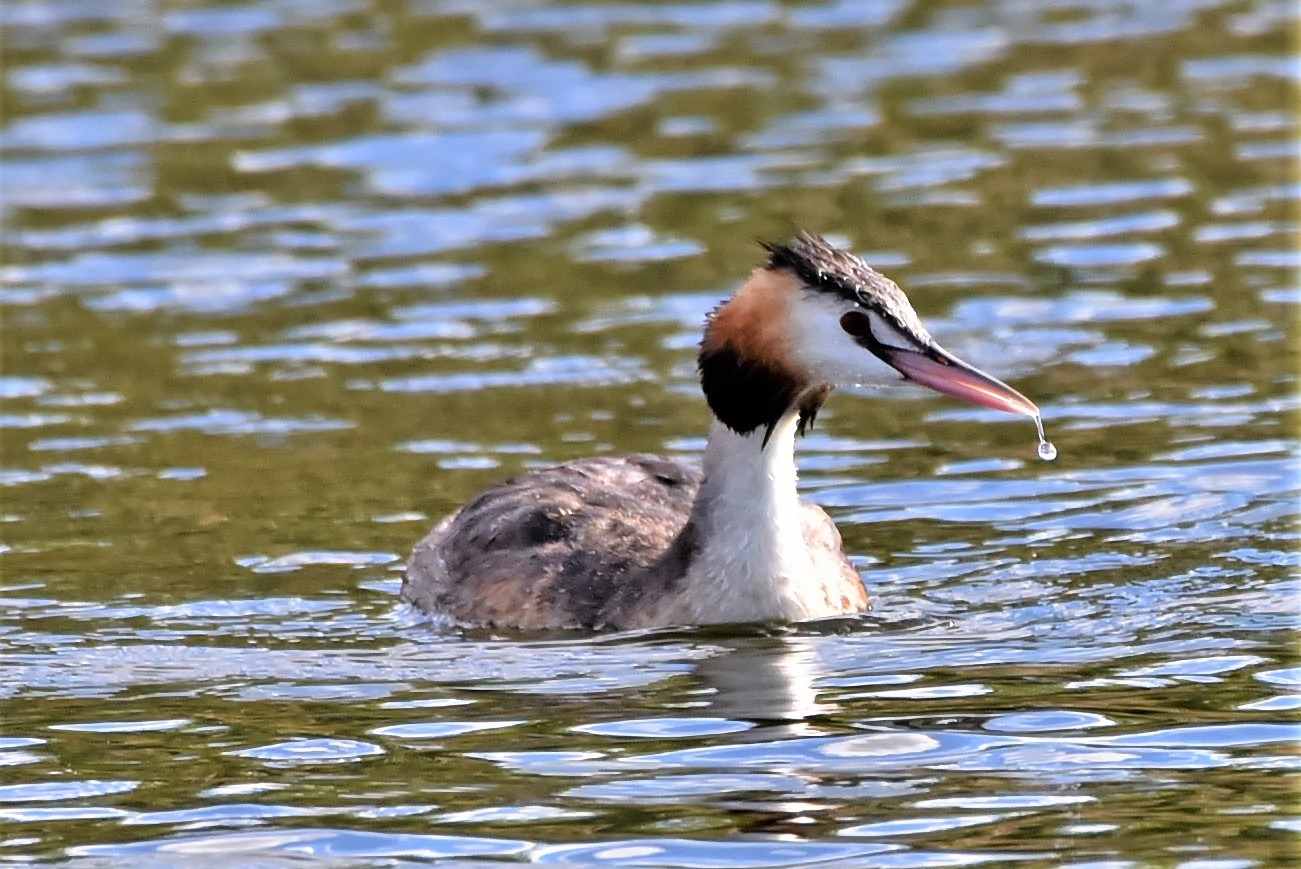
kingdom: Animalia
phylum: Chordata
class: Aves
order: Podicipediformes
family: Podicipedidae
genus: Podiceps
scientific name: Podiceps cristatus
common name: Toppet lappedykker
